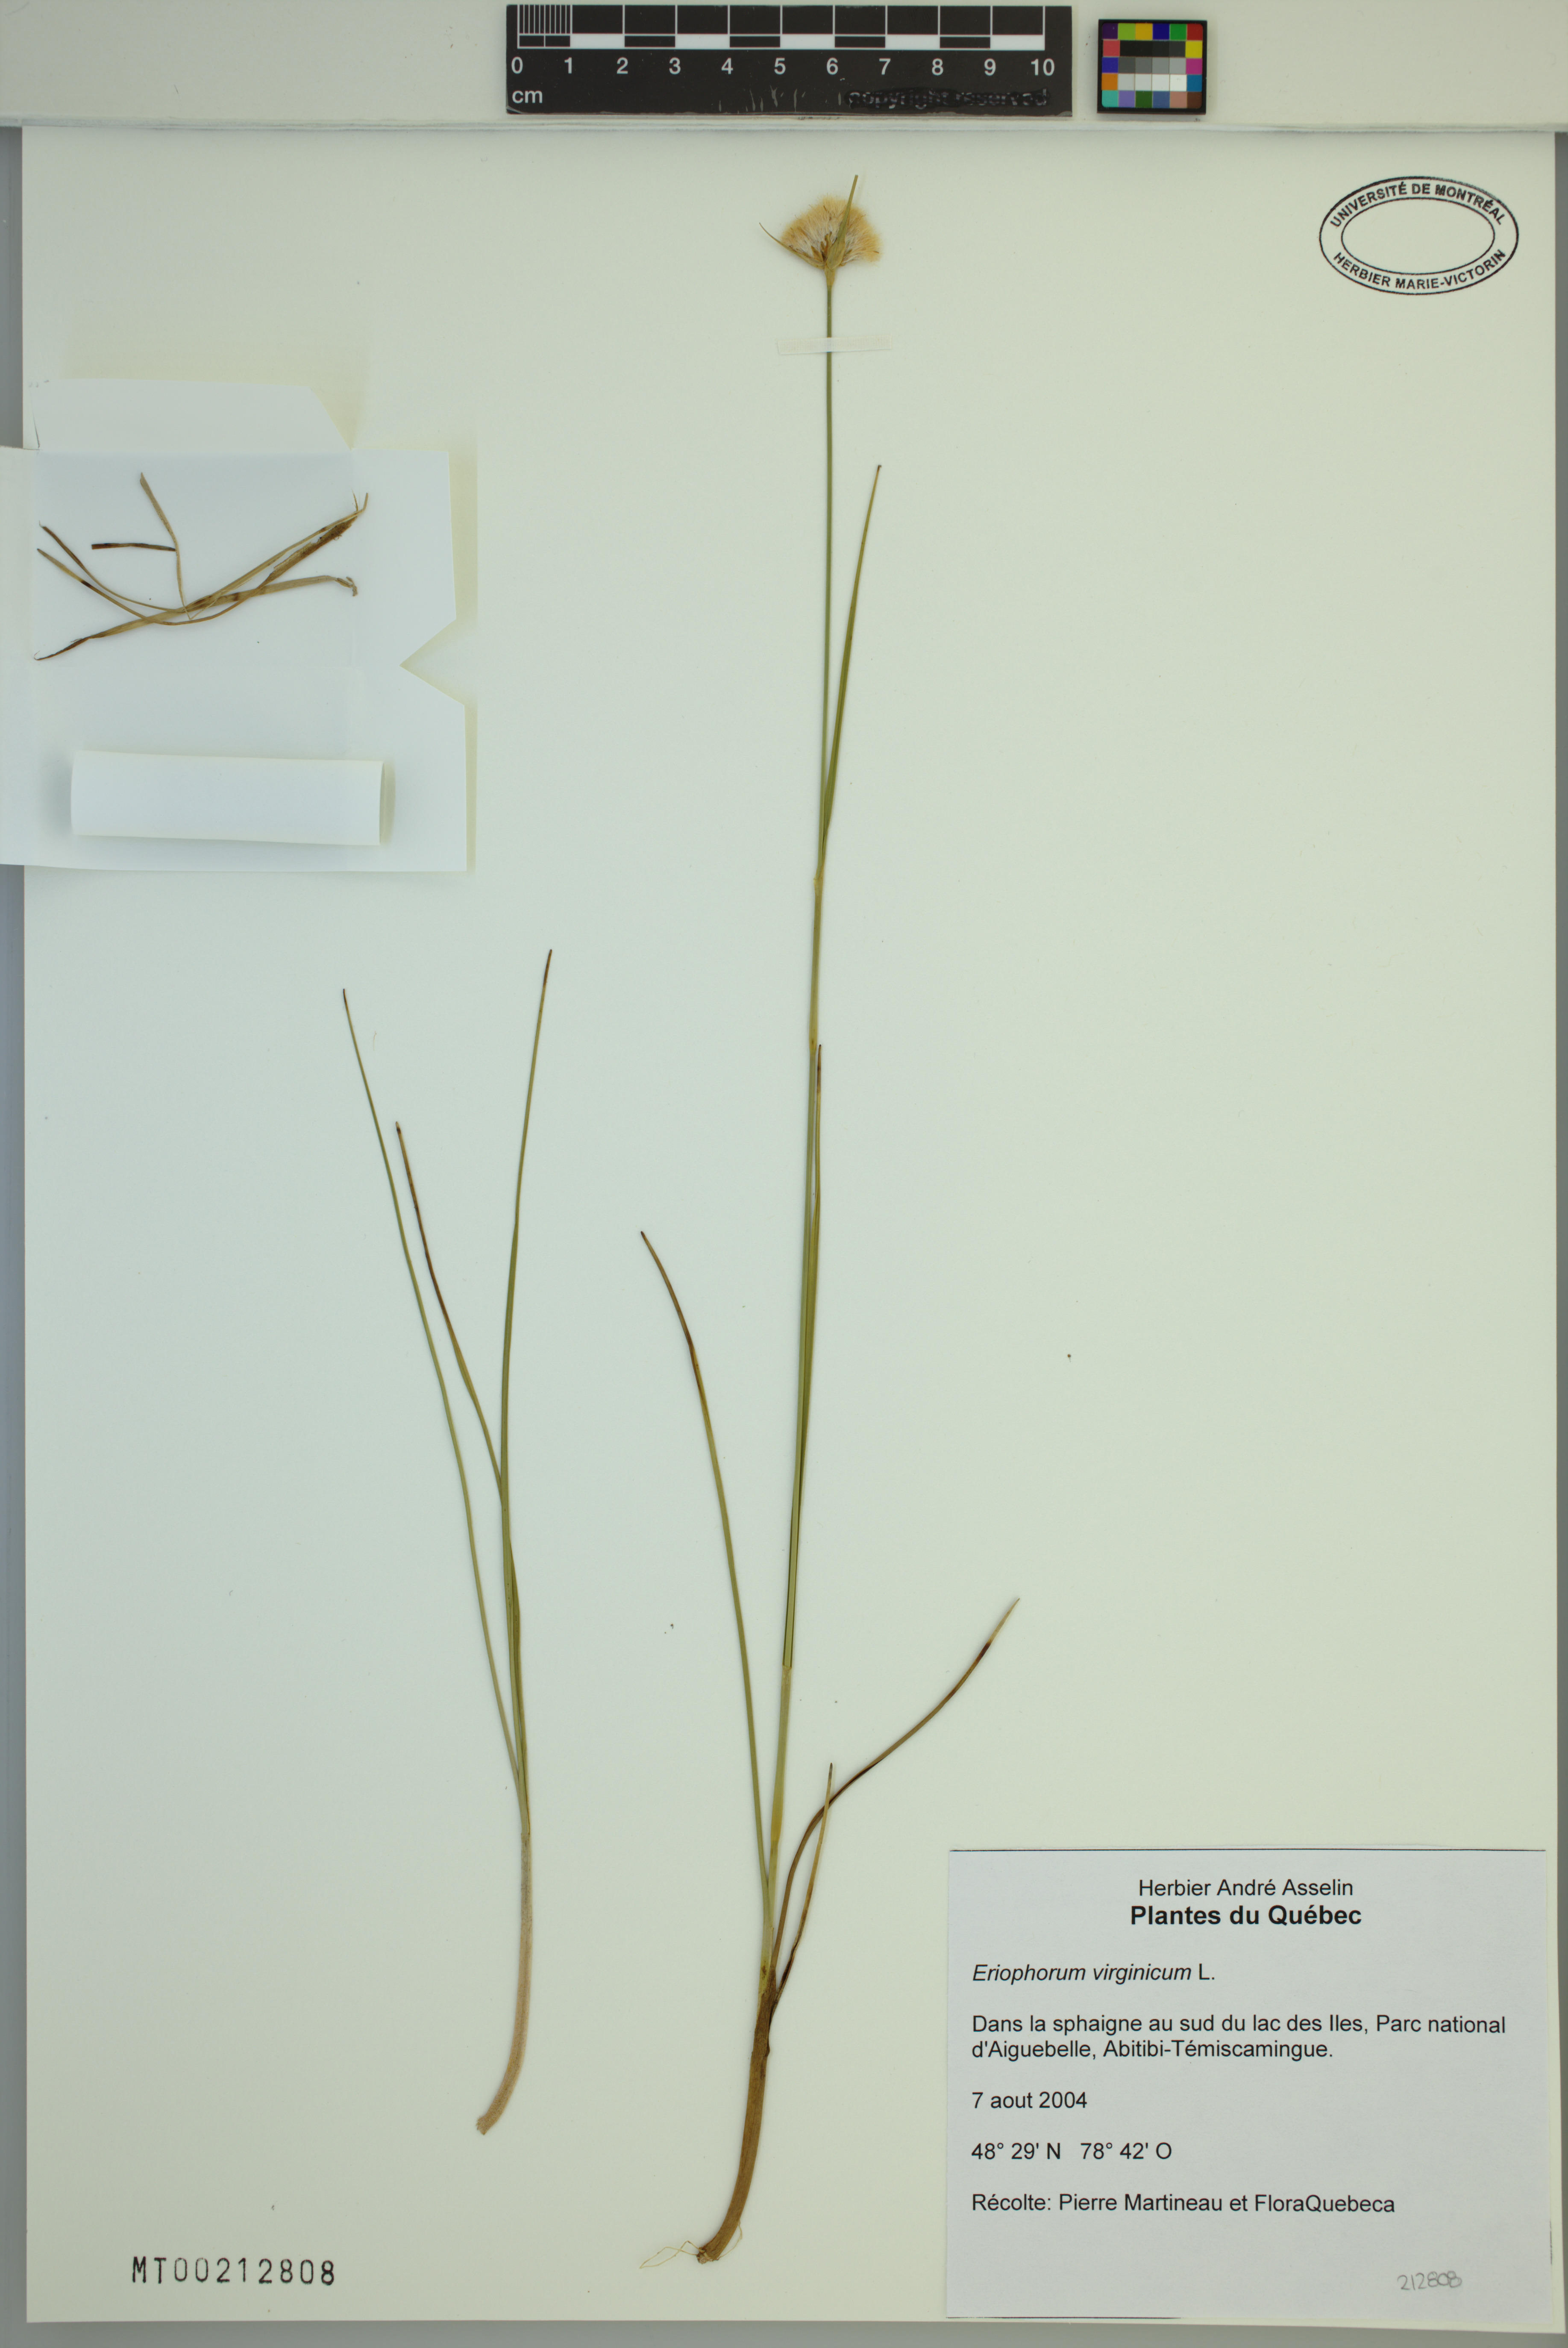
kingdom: Plantae
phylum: Tracheophyta
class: Liliopsida
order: Poales
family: Cyperaceae
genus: Eriophorum
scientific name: Eriophorum virginicum
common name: Tawny cottongrass
